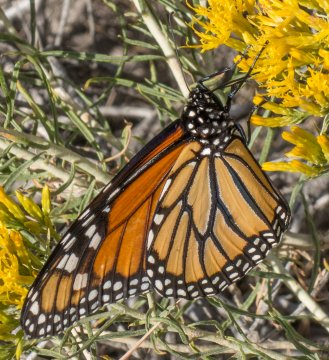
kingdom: Animalia
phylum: Arthropoda
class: Insecta
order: Lepidoptera
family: Nymphalidae
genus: Danaus
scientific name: Danaus plexippus
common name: Monarch
